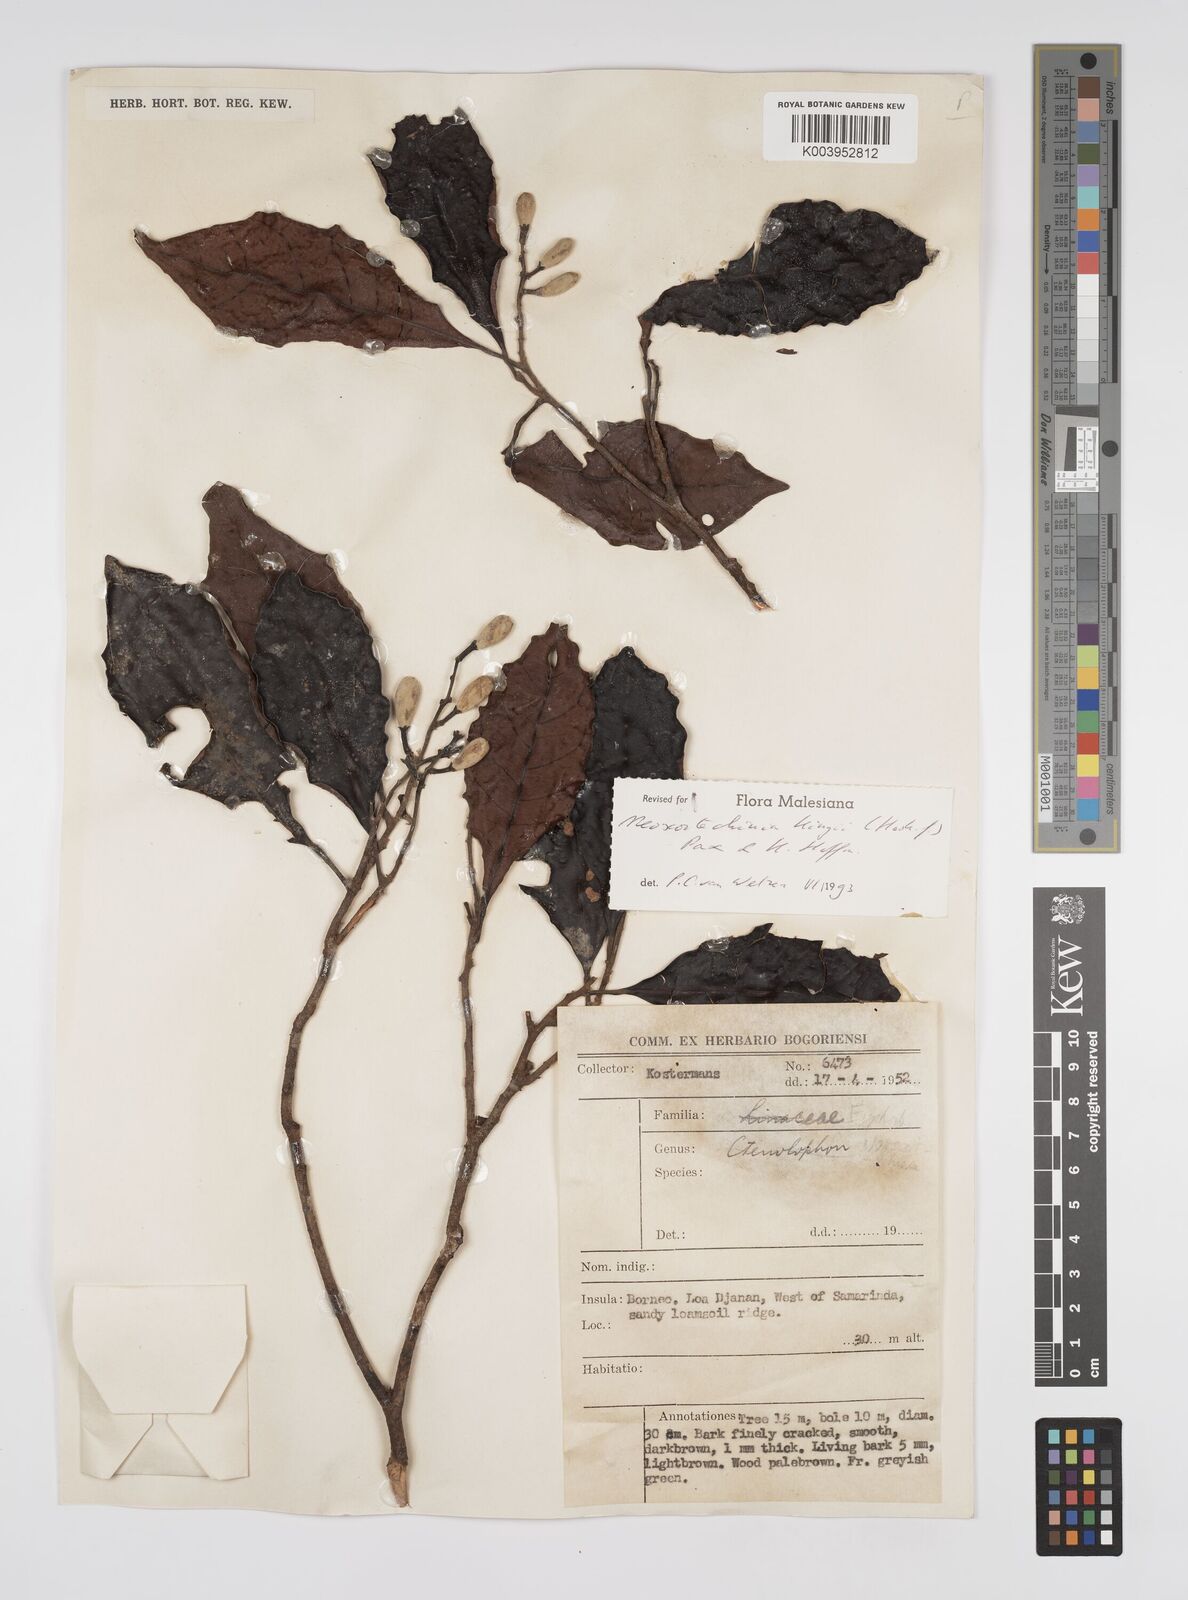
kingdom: Plantae
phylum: Tracheophyta
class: Magnoliopsida
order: Malpighiales
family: Euphorbiaceae
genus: Neoscortechinia
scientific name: Neoscortechinia kingii
